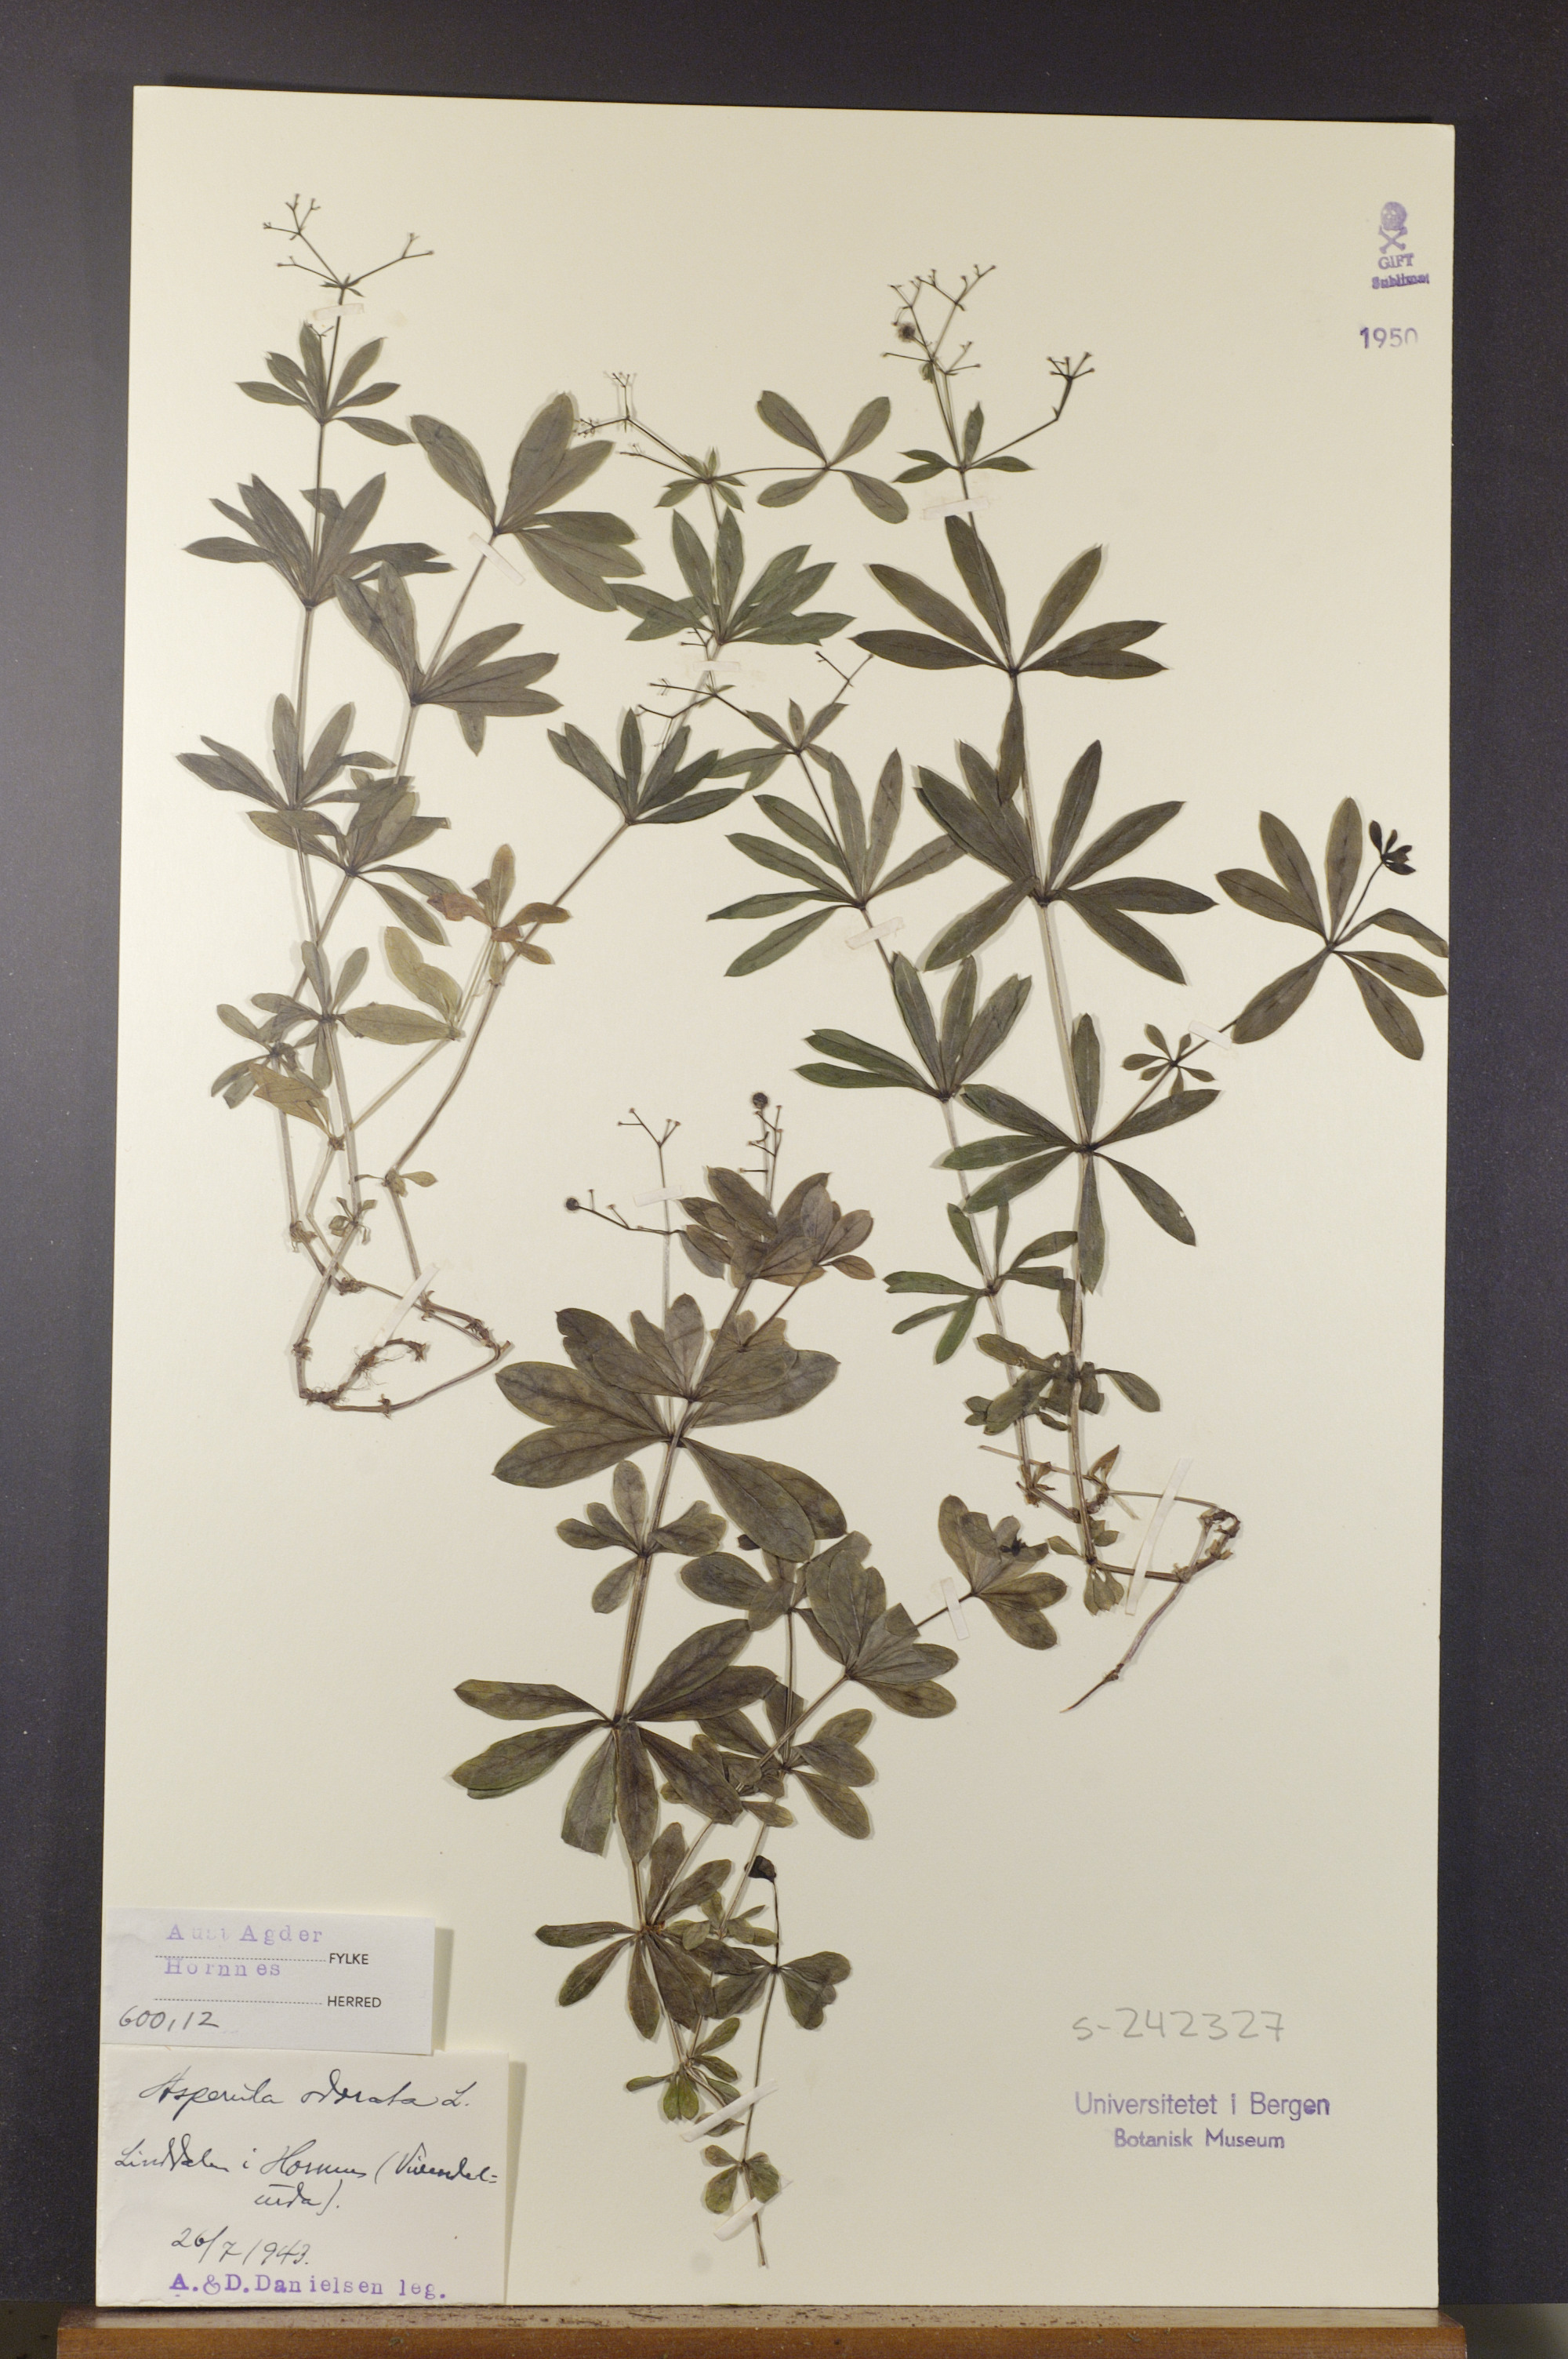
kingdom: Plantae
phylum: Tracheophyta
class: Magnoliopsida
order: Gentianales
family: Rubiaceae
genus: Galium
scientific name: Galium odoratum
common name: Sweet woodruff
